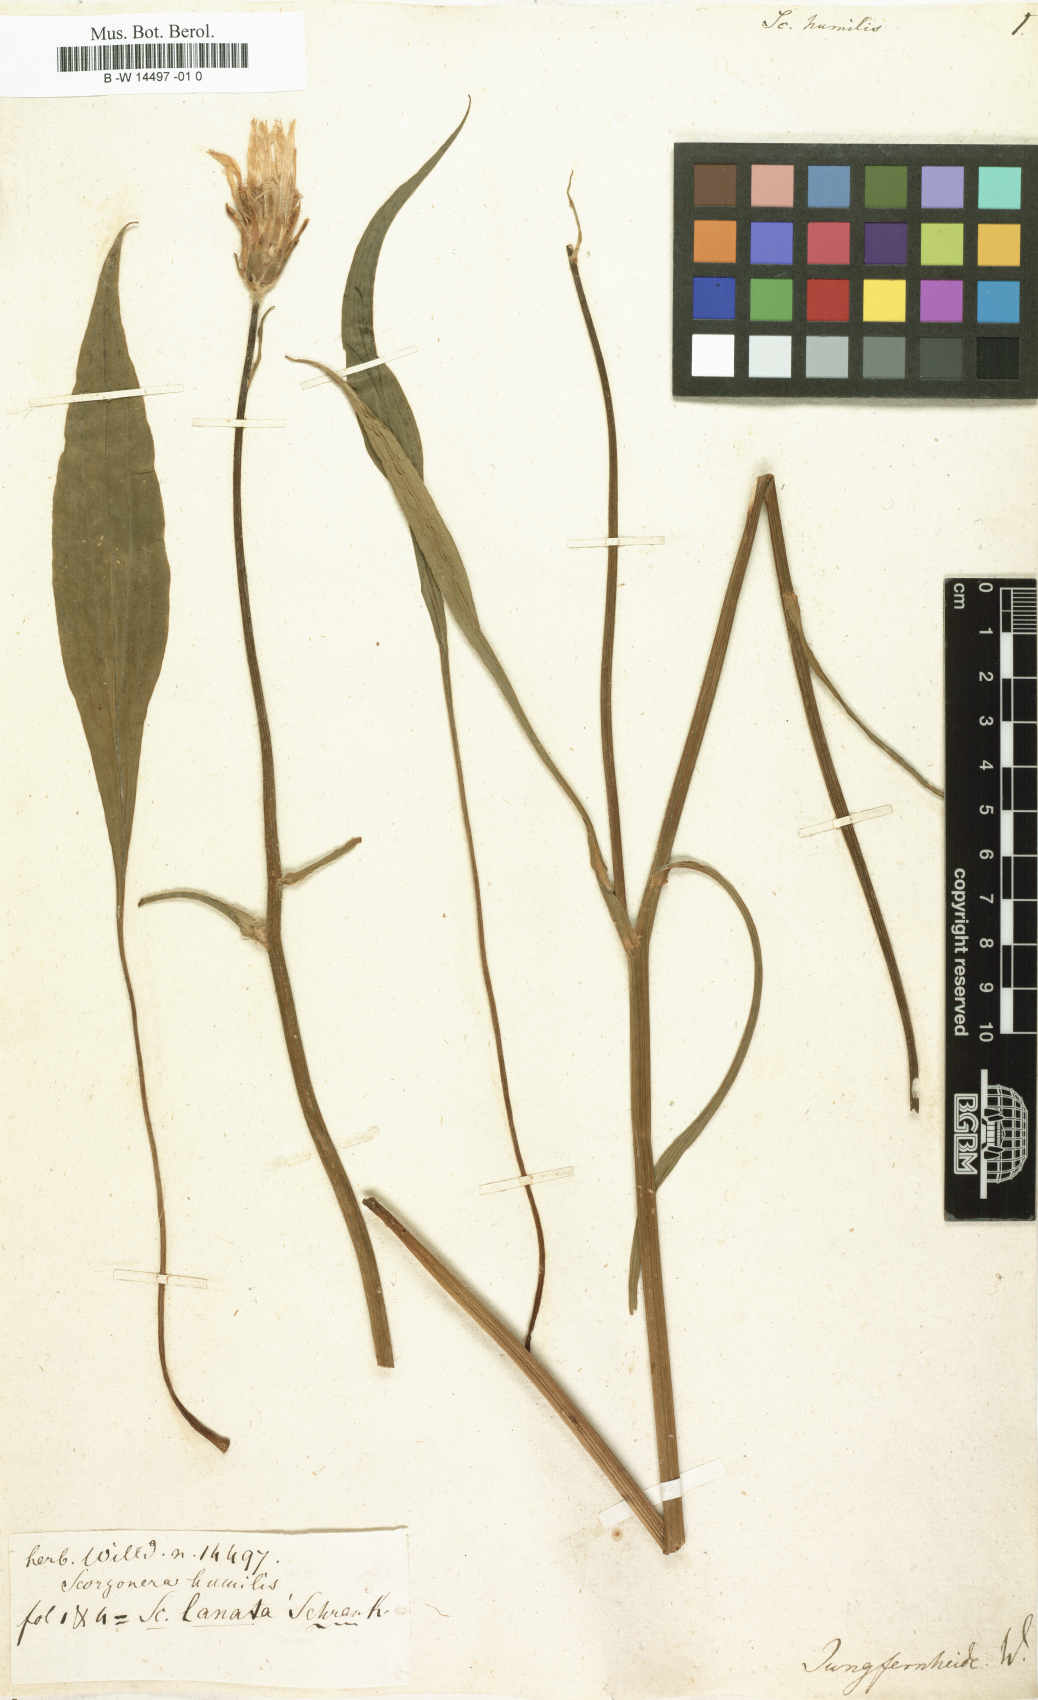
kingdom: Plantae
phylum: Tracheophyta
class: Magnoliopsida
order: Asterales
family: Asteraceae
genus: Scorzonera
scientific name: Scorzonera humilis
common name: Viper's-grass
